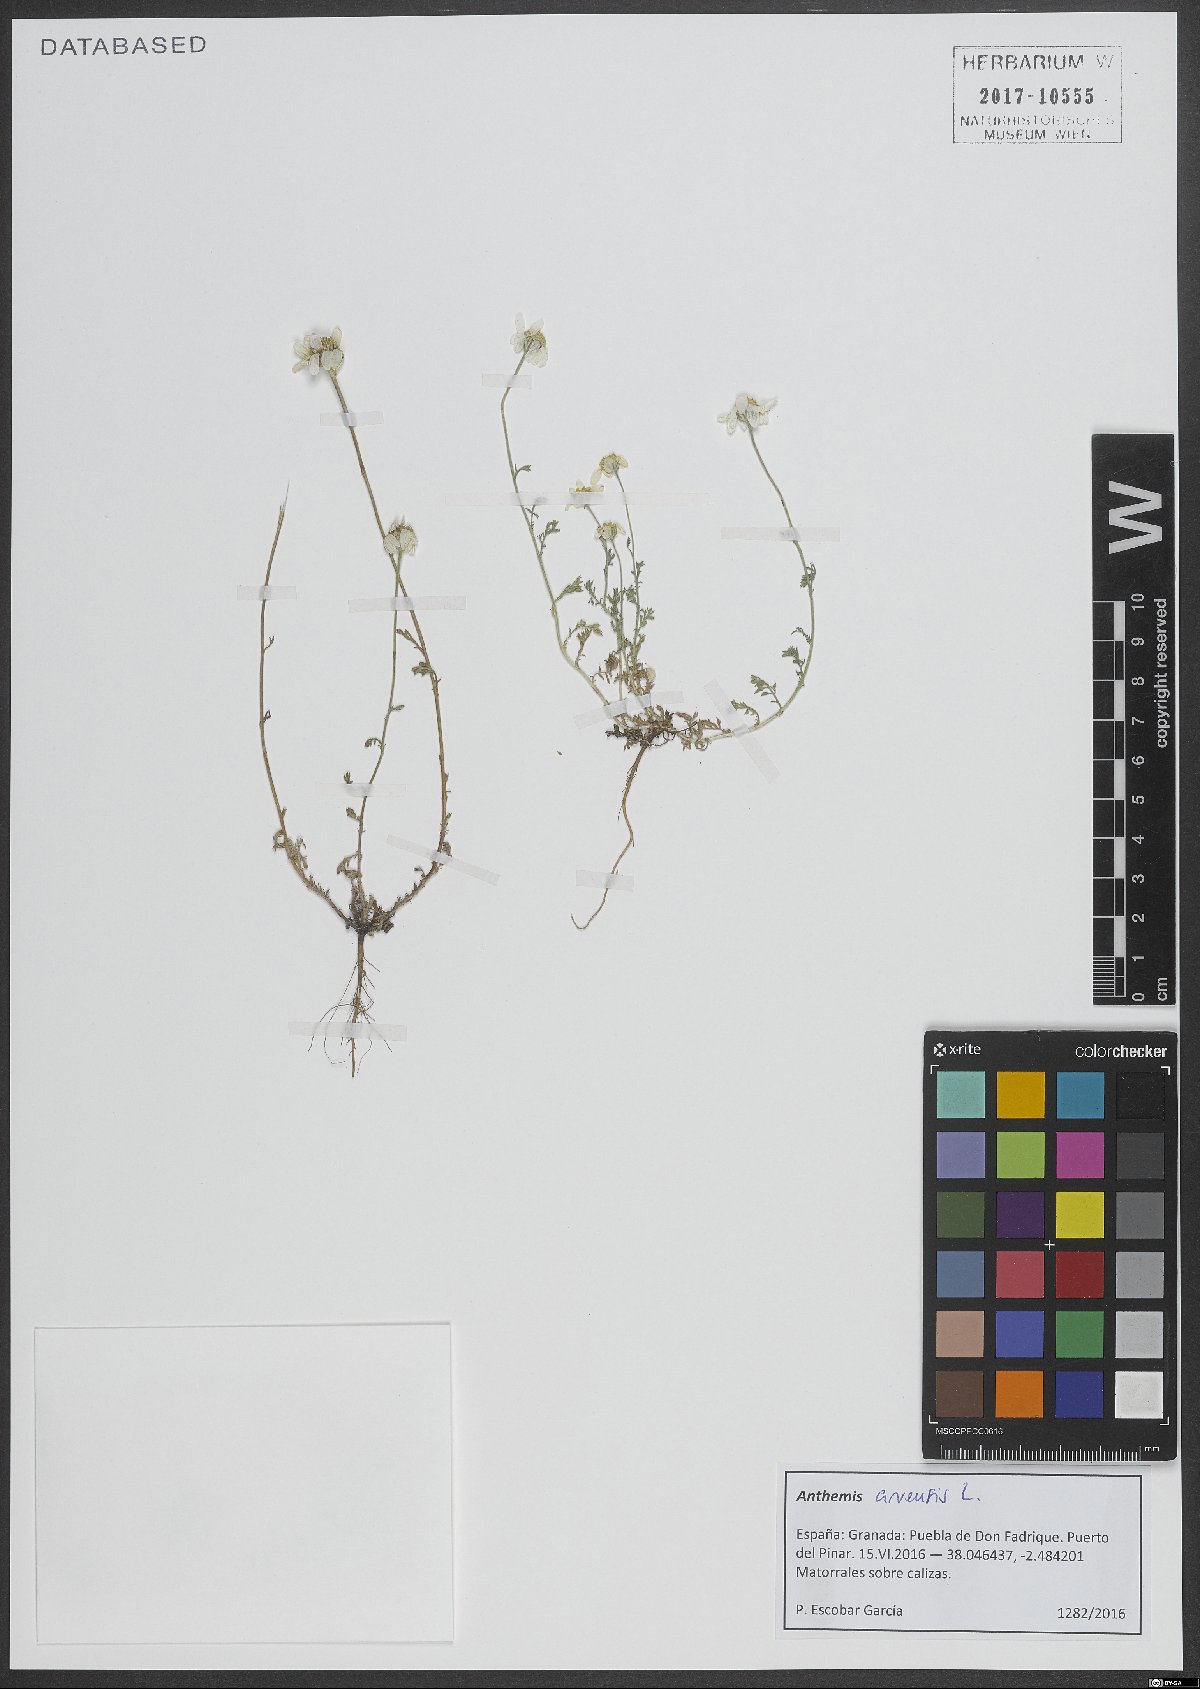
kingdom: Plantae
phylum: Tracheophyta
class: Magnoliopsida
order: Asterales
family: Asteraceae
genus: Anthemis
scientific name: Anthemis arvensis
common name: Corn chamomile
